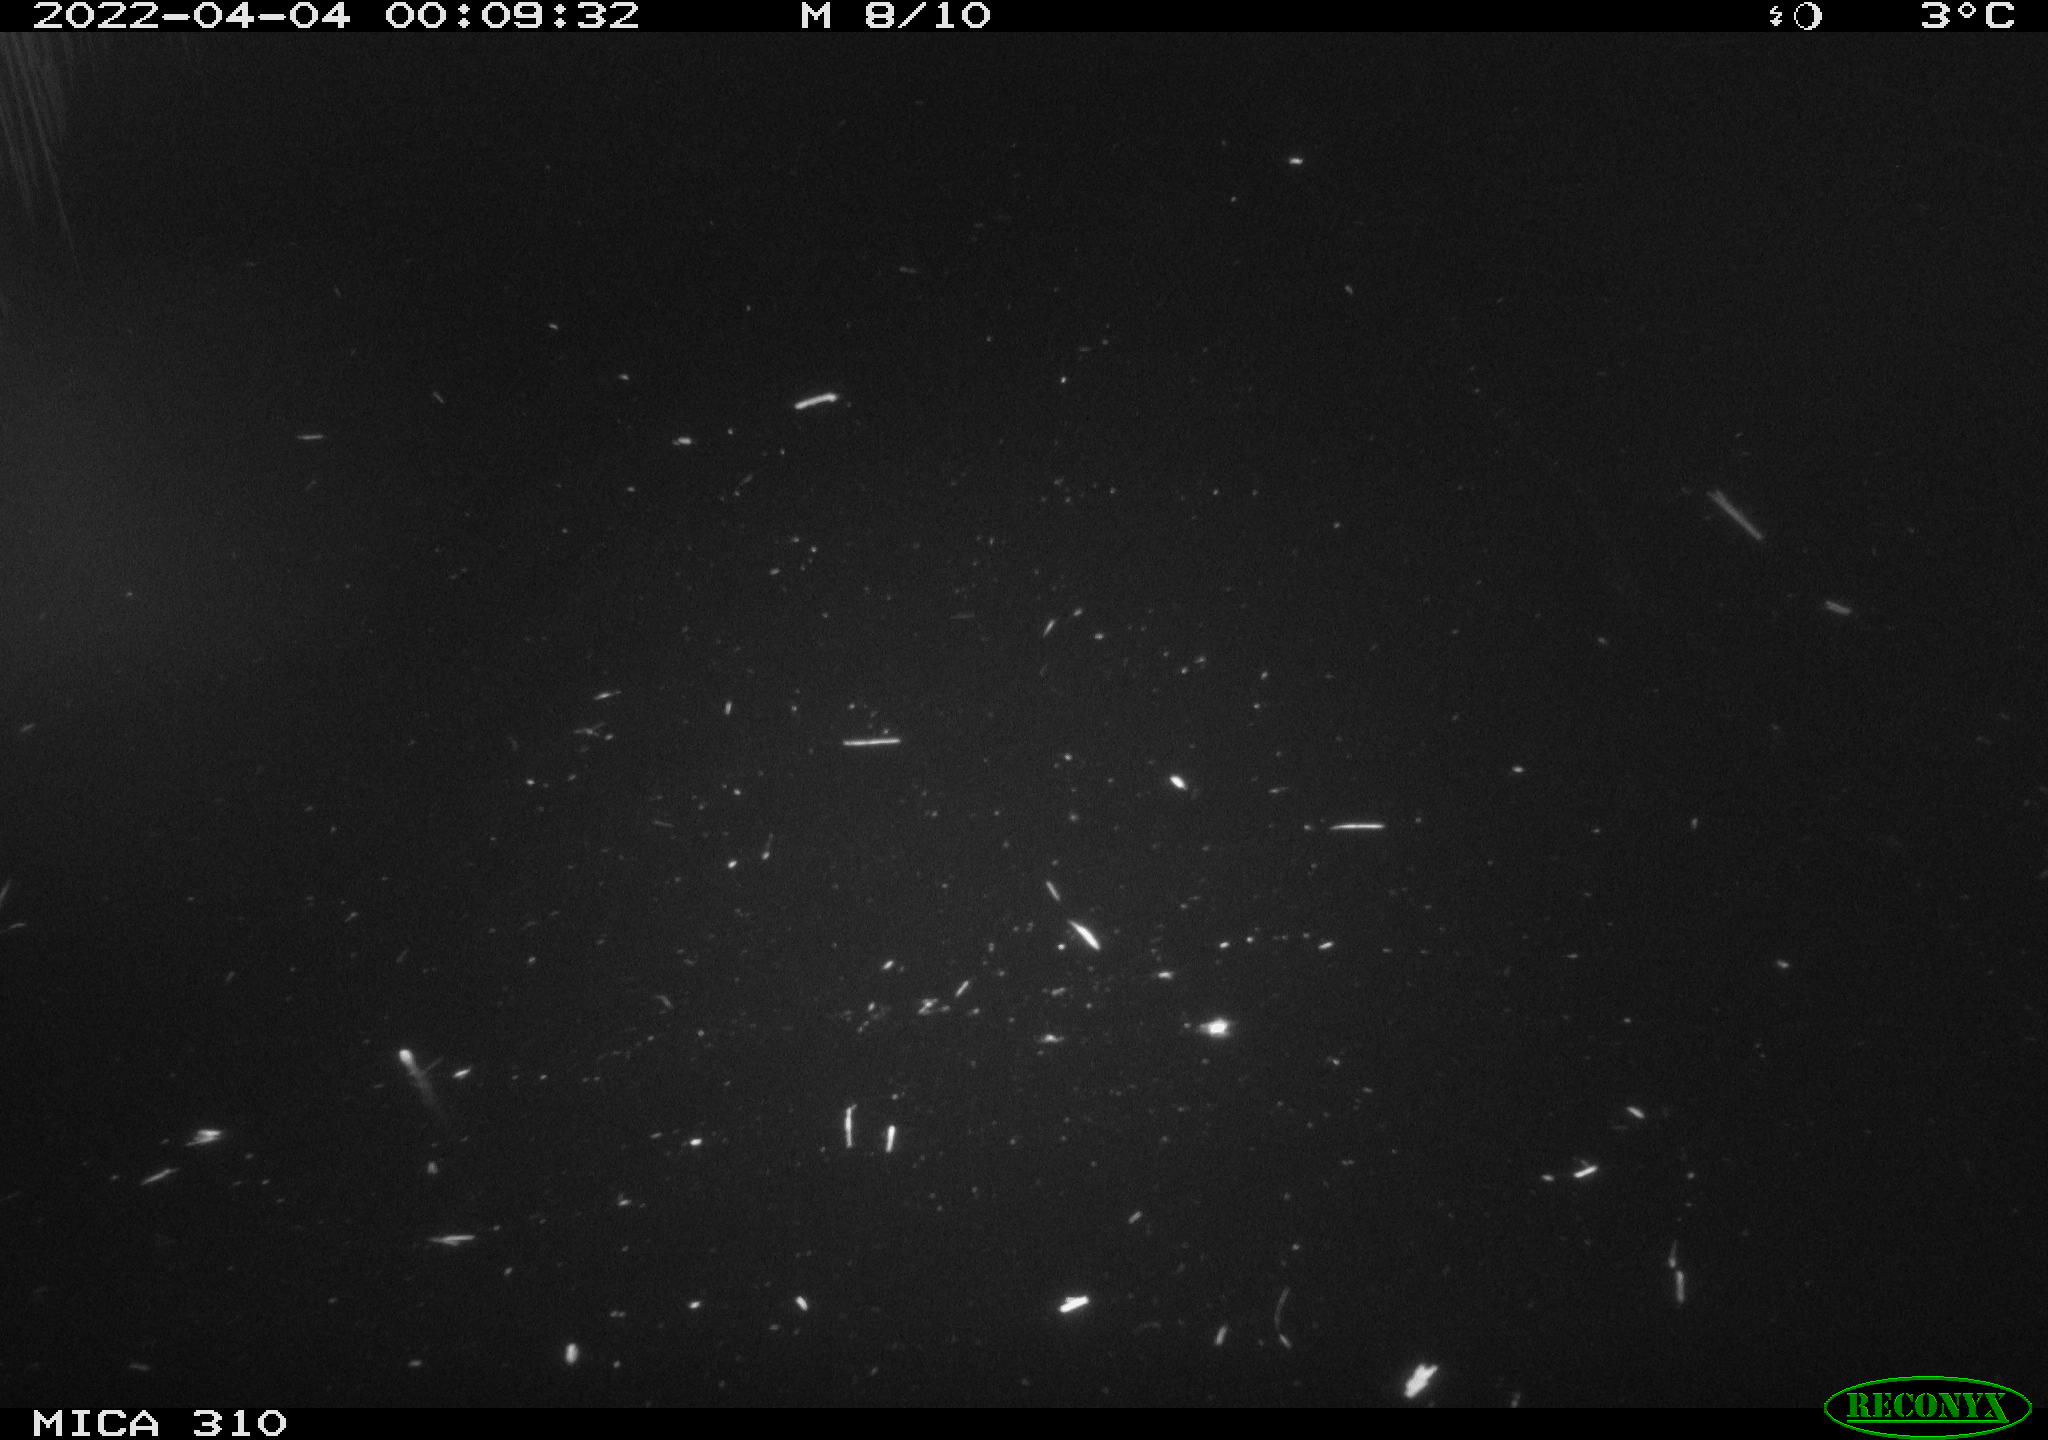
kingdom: Animalia
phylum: Chordata
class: Aves
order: Anseriformes
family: Anatidae
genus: Anas
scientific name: Anas platyrhynchos
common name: Mallard
